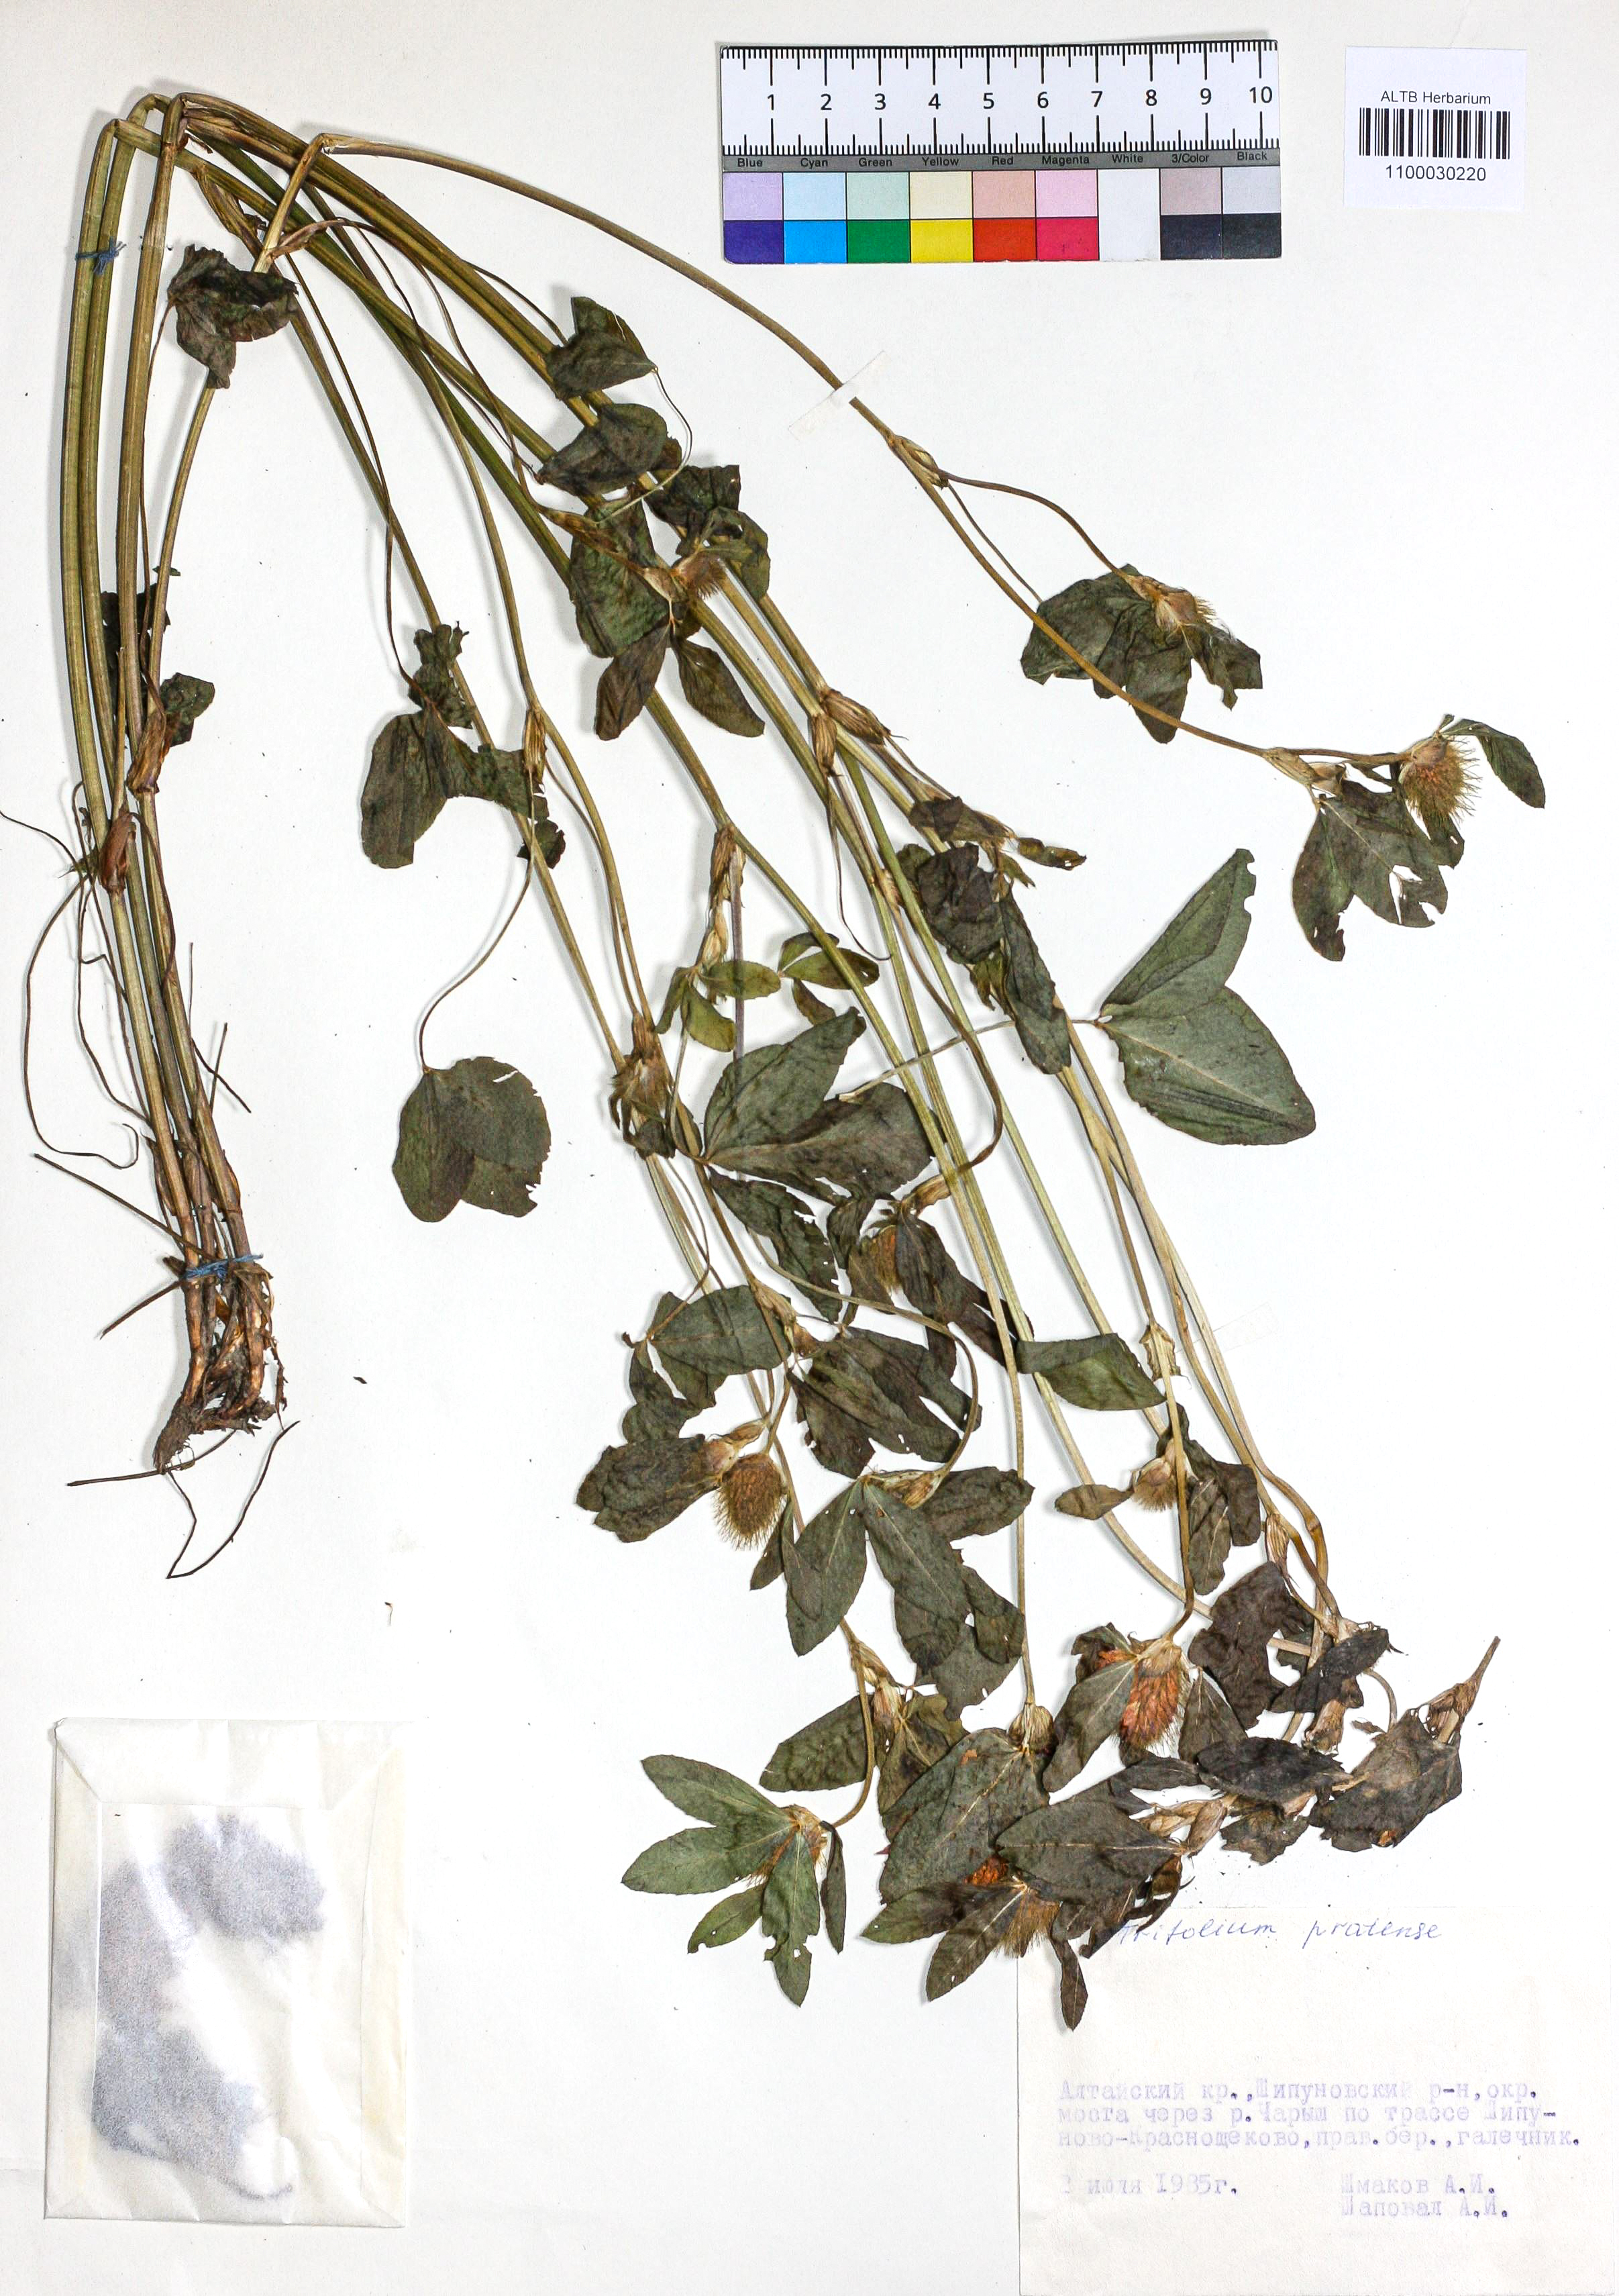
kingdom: Plantae
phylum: Tracheophyta
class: Magnoliopsida
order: Fabales
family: Fabaceae
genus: Trifolium
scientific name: Trifolium pratense
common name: Red clover
